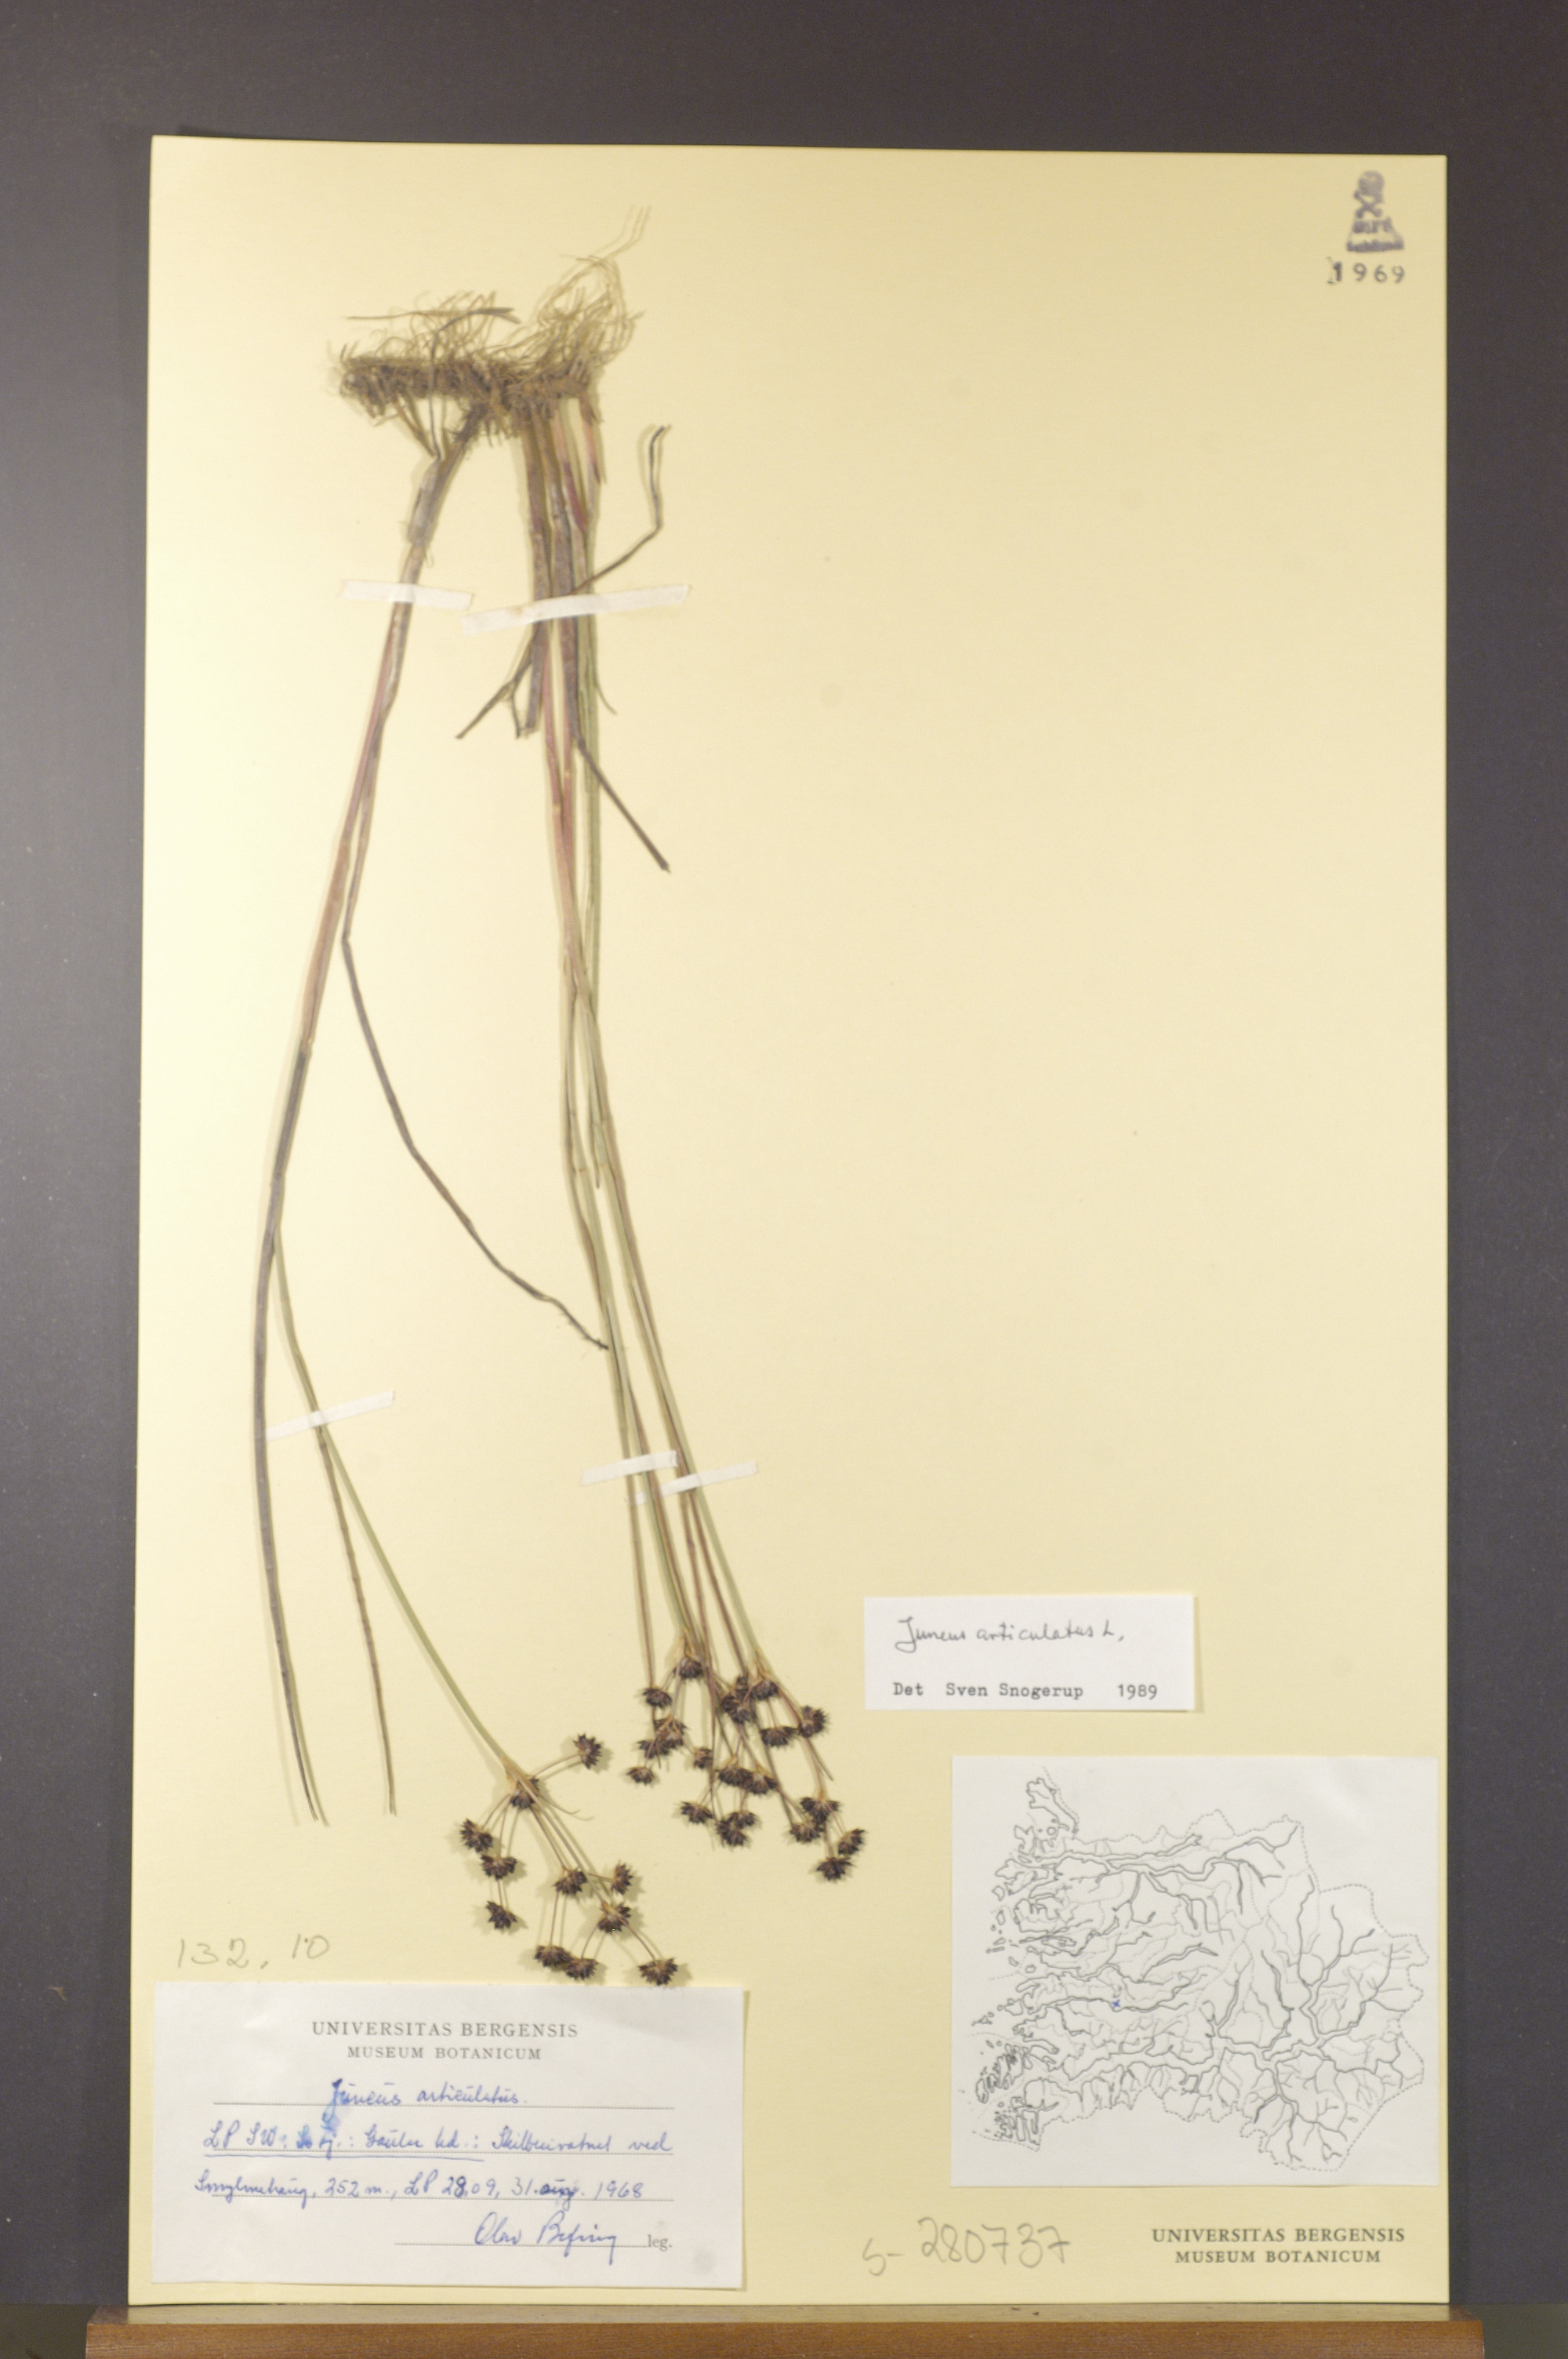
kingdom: Plantae
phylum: Tracheophyta
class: Liliopsida
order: Poales
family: Juncaceae
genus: Juncus
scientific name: Juncus articulatus
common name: Jointed rush
